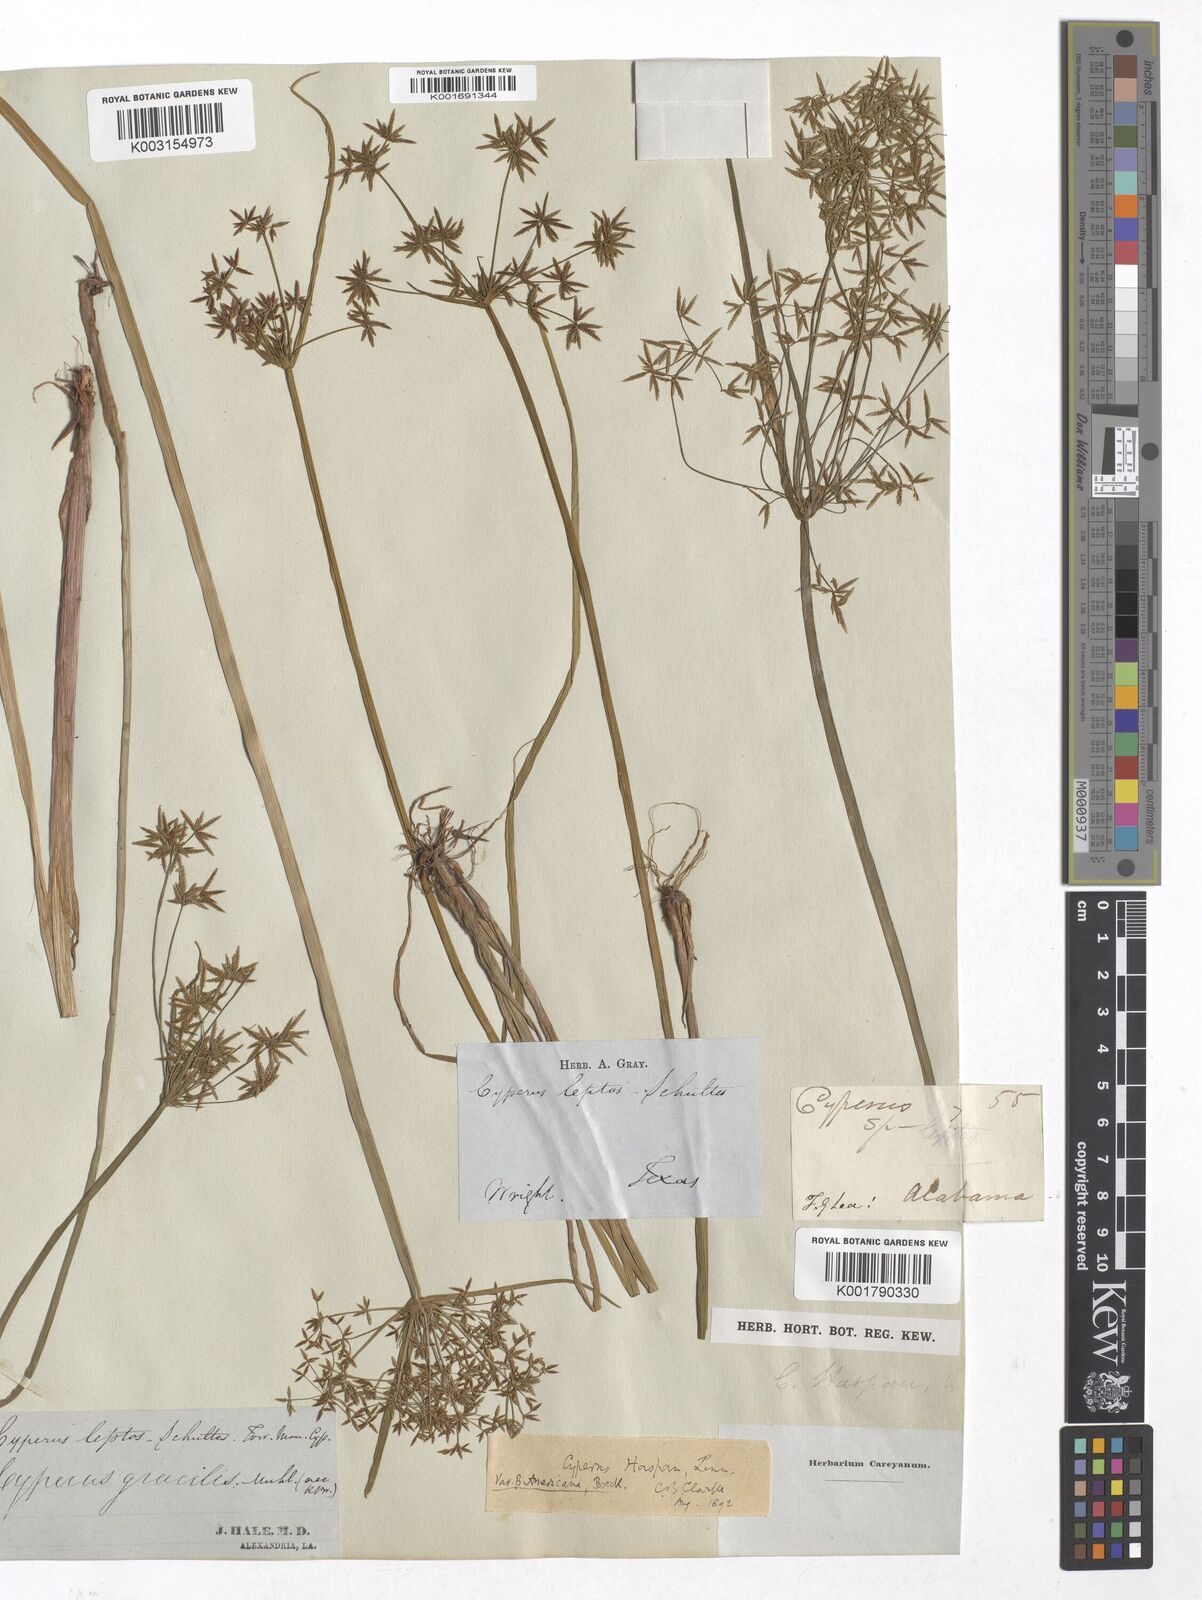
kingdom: Plantae
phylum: Tracheophyta
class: Liliopsida
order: Poales
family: Cyperaceae
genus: Cyperus
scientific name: Cyperus haspan
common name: Haspan flatsedge
